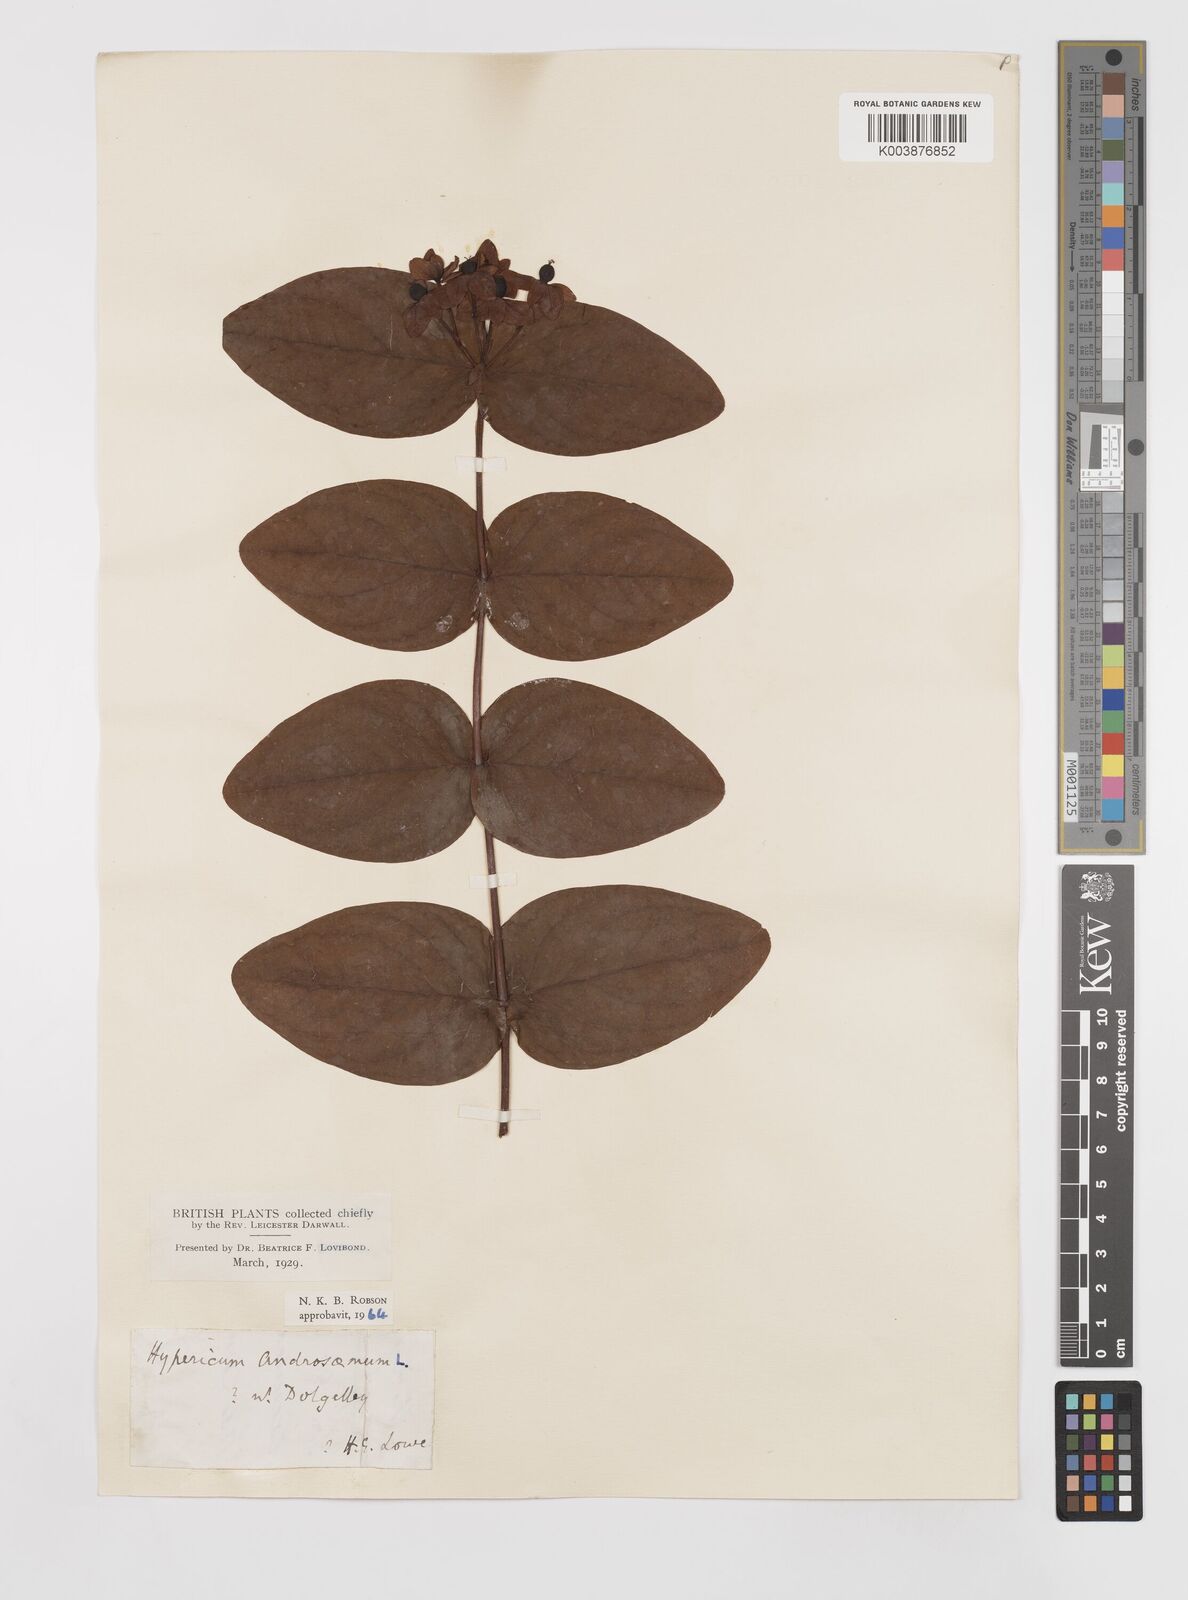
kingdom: Plantae
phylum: Tracheophyta
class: Magnoliopsida
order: Malpighiales
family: Hypericaceae
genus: Hypericum
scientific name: Hypericum androsaemum
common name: Sweet-amber
